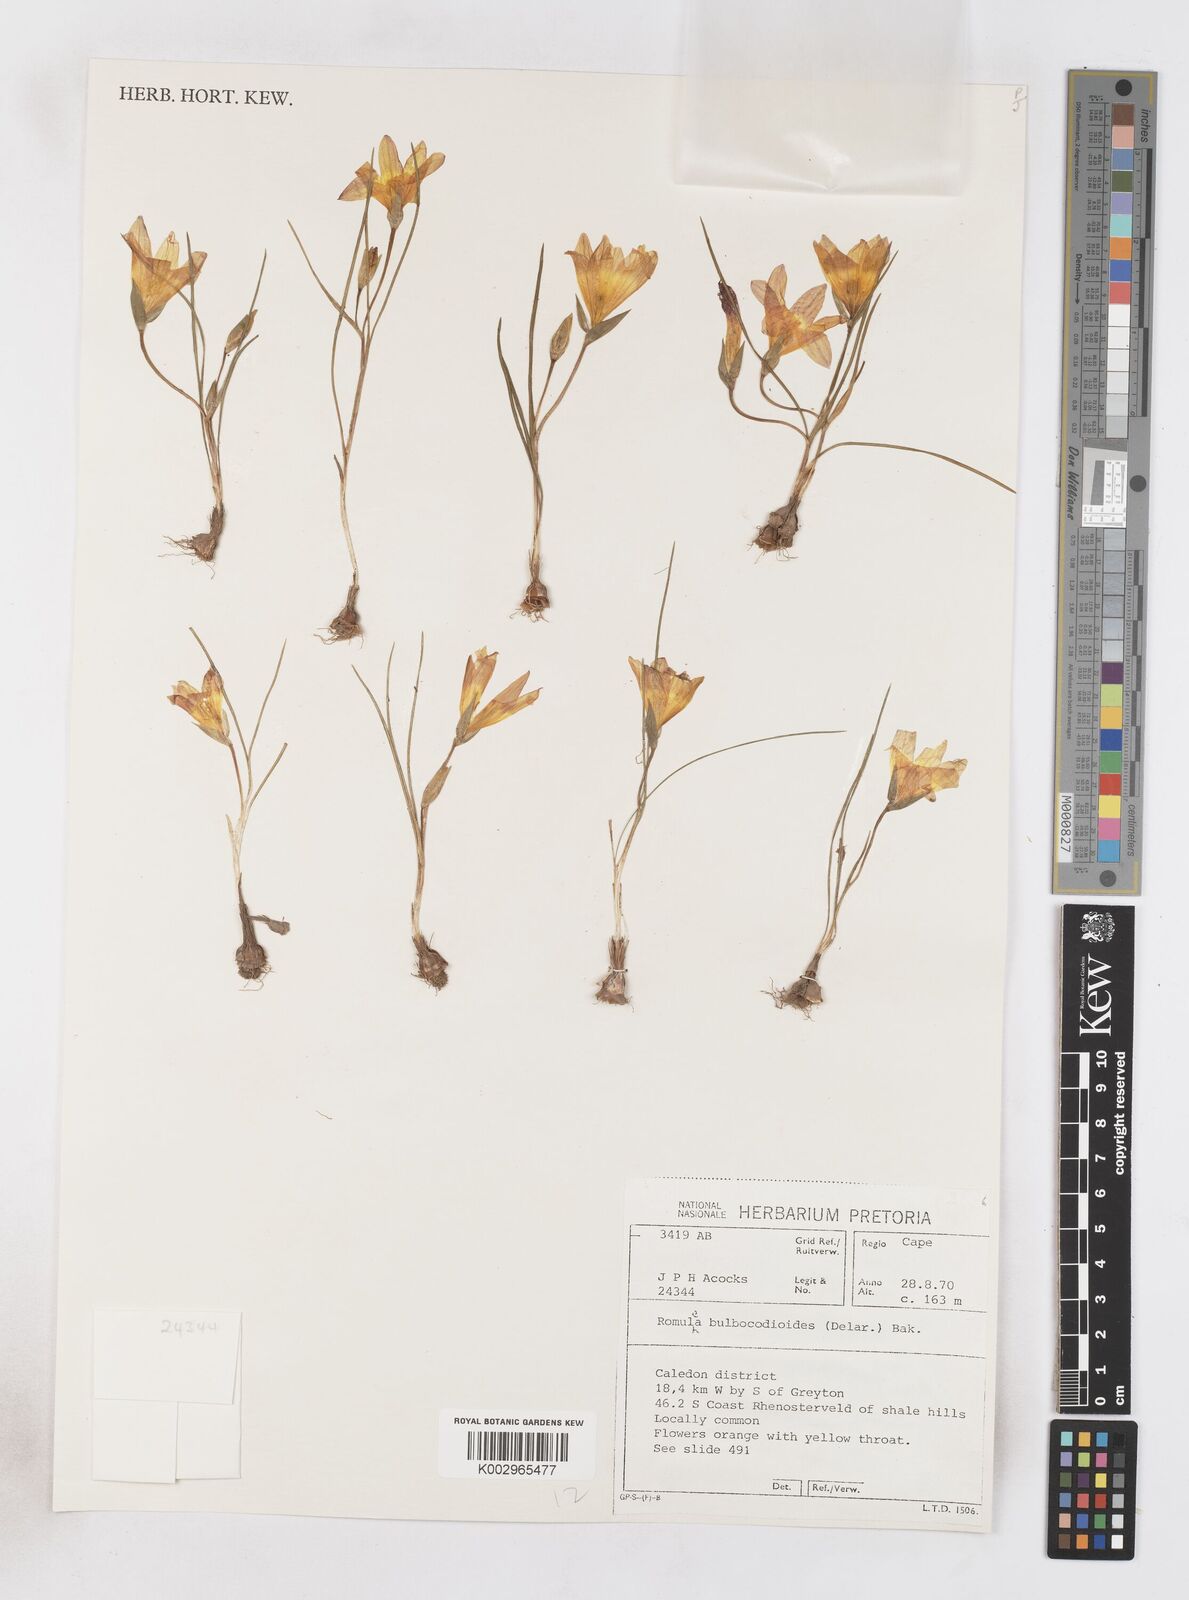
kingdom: Plantae
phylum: Tracheophyta
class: Liliopsida
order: Asparagales
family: Iridaceae
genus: Romulea
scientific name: Romulea flava
